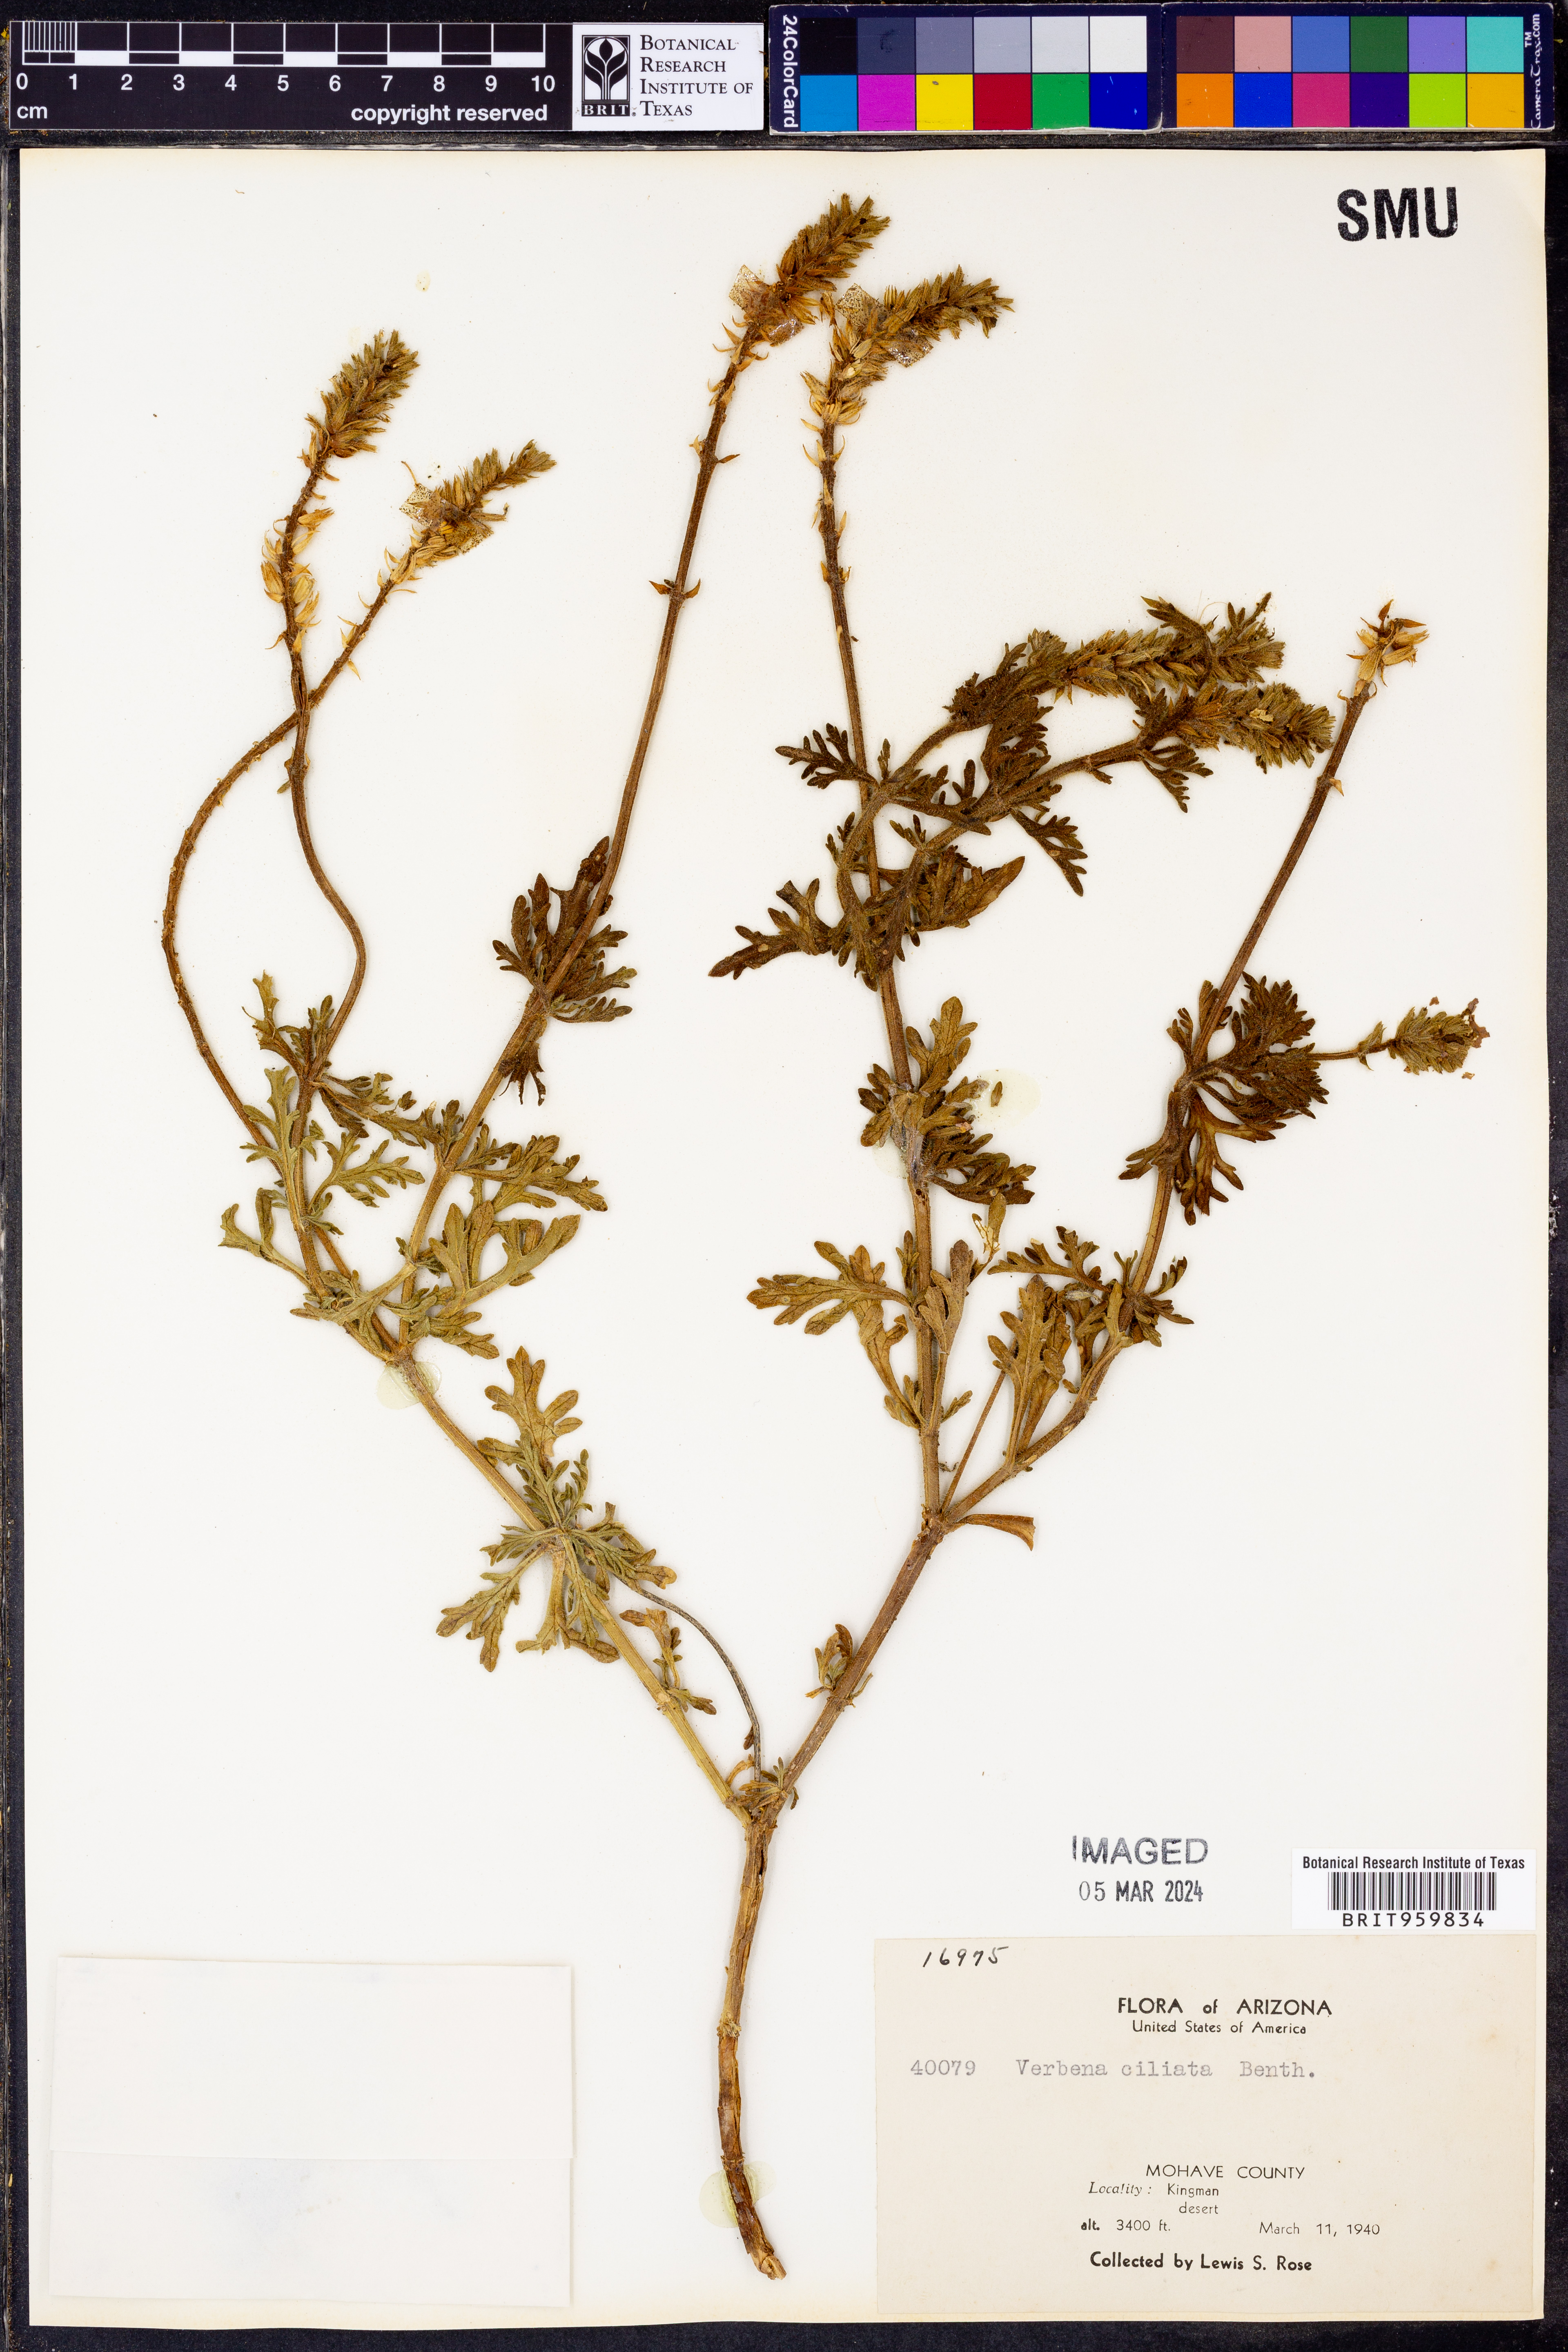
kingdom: Plantae
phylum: Tracheophyta
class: Magnoliopsida
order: Lamiales
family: Verbenaceae
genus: Verbena
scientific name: Verbena bipinnatifida
